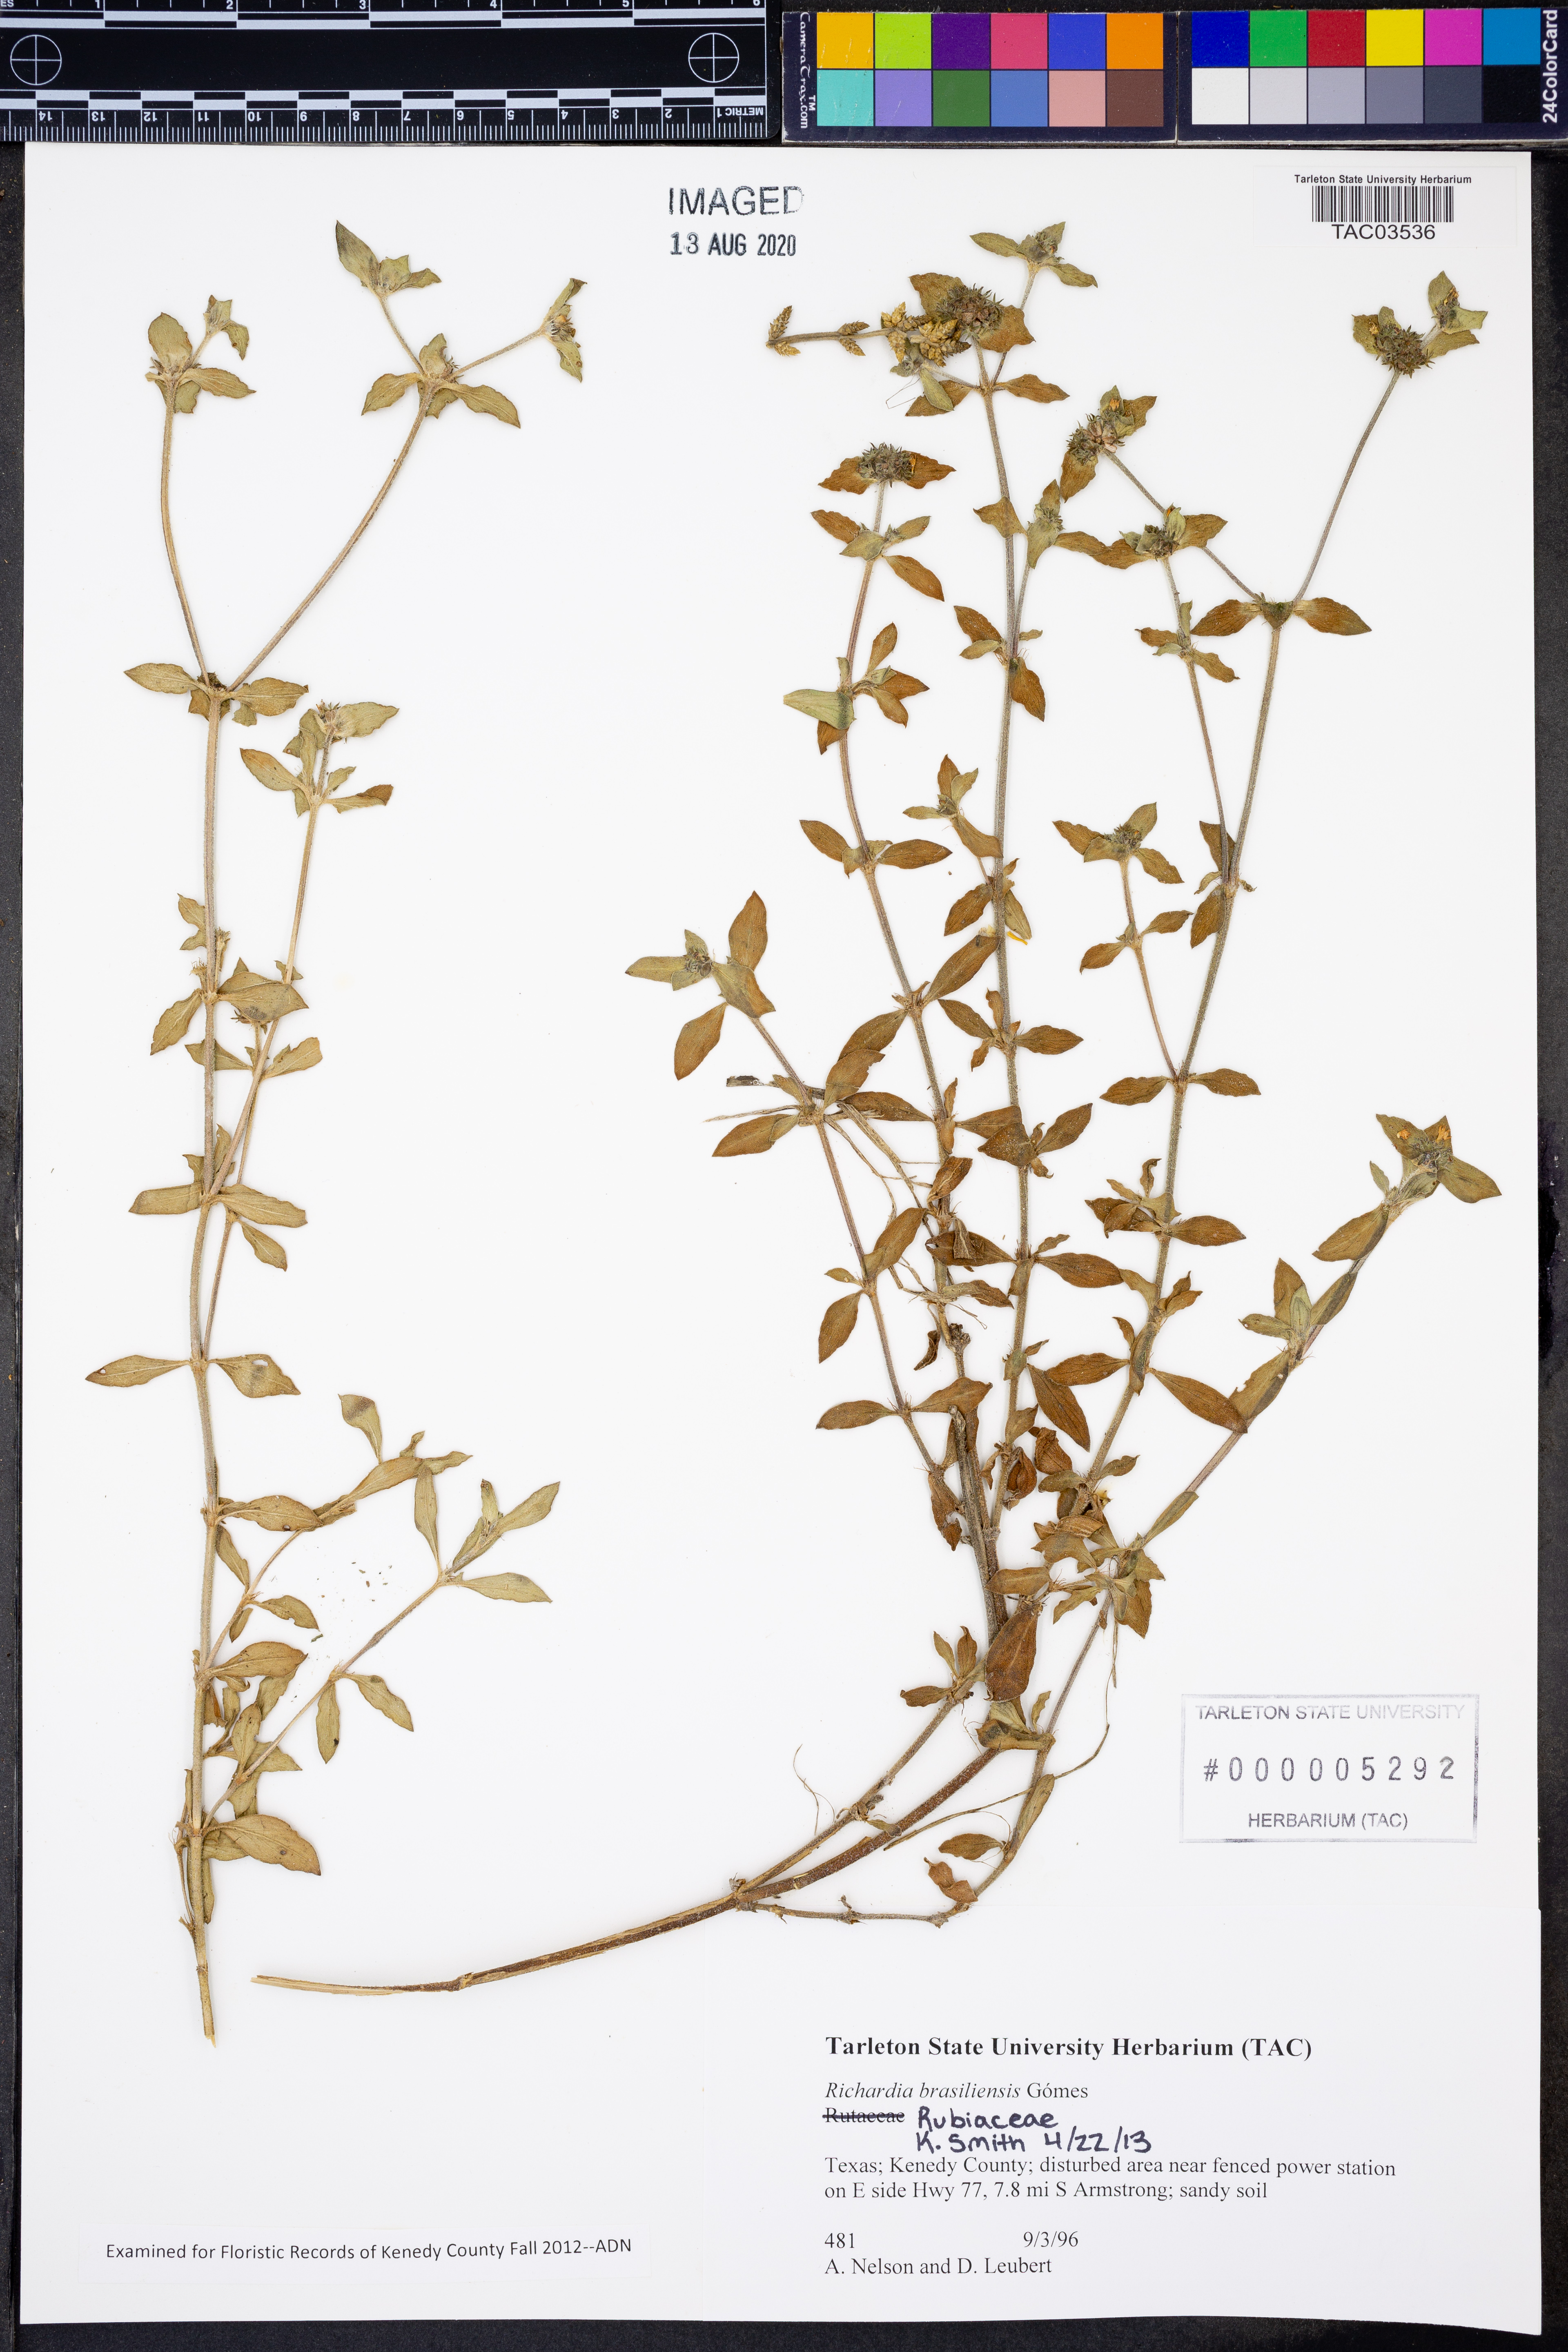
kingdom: Plantae
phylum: Tracheophyta
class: Magnoliopsida
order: Gentianales
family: Rubiaceae
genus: Richardia
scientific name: Richardia brasiliensis
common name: Tropical mexican clover
